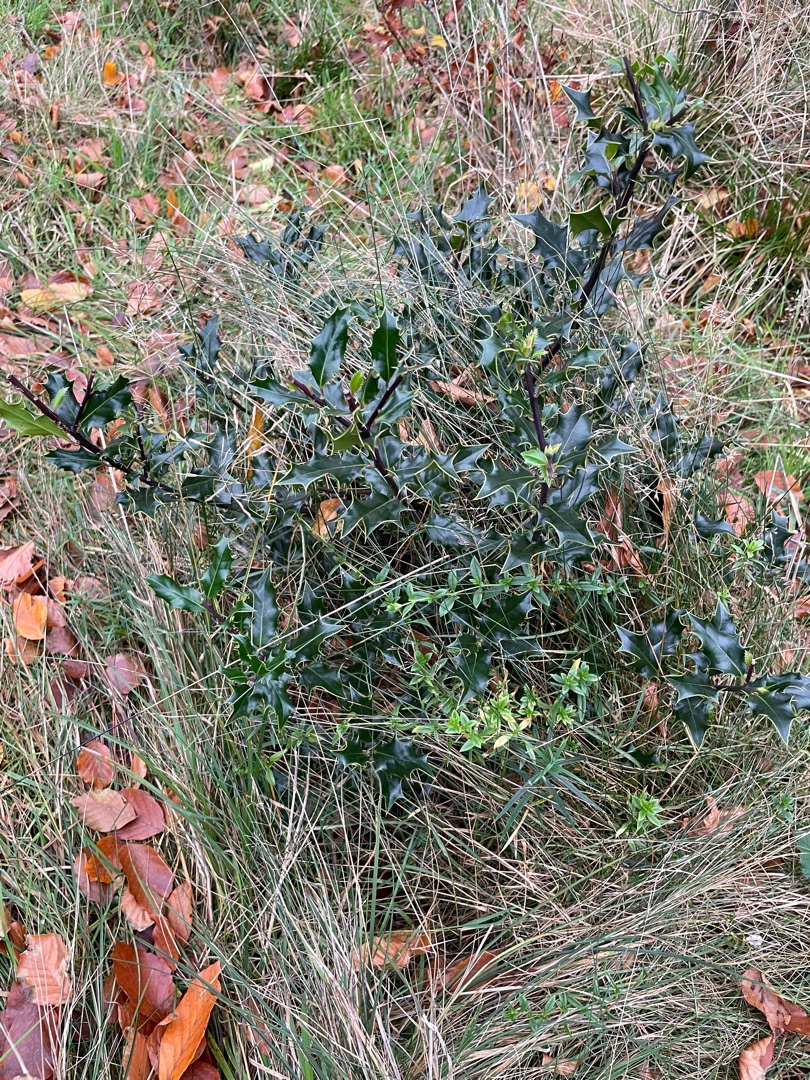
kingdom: Plantae
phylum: Tracheophyta
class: Magnoliopsida
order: Aquifoliales
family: Aquifoliaceae
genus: Ilex
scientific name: Ilex aquifolium
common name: Kristtorn
